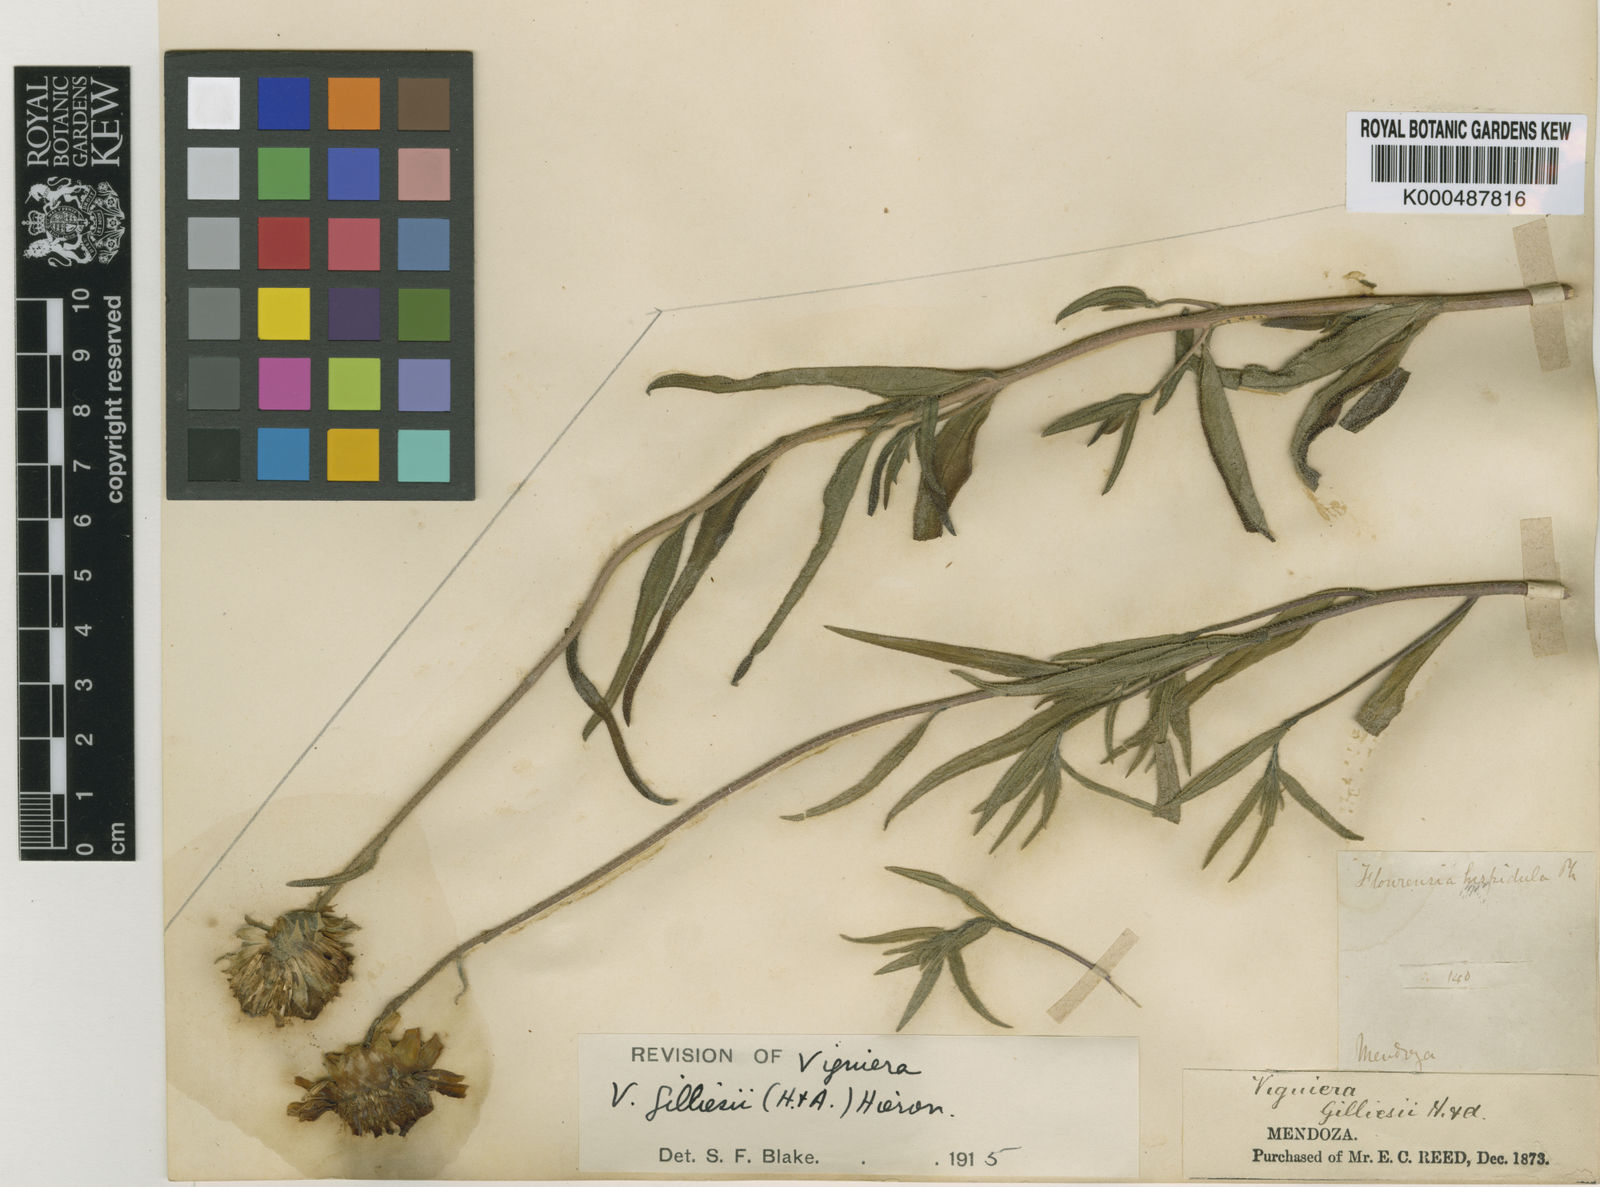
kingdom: Plantae
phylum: Tracheophyta
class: Magnoliopsida
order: Asterales
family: Asteraceae
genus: Aldama
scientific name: Aldama gilliesii
